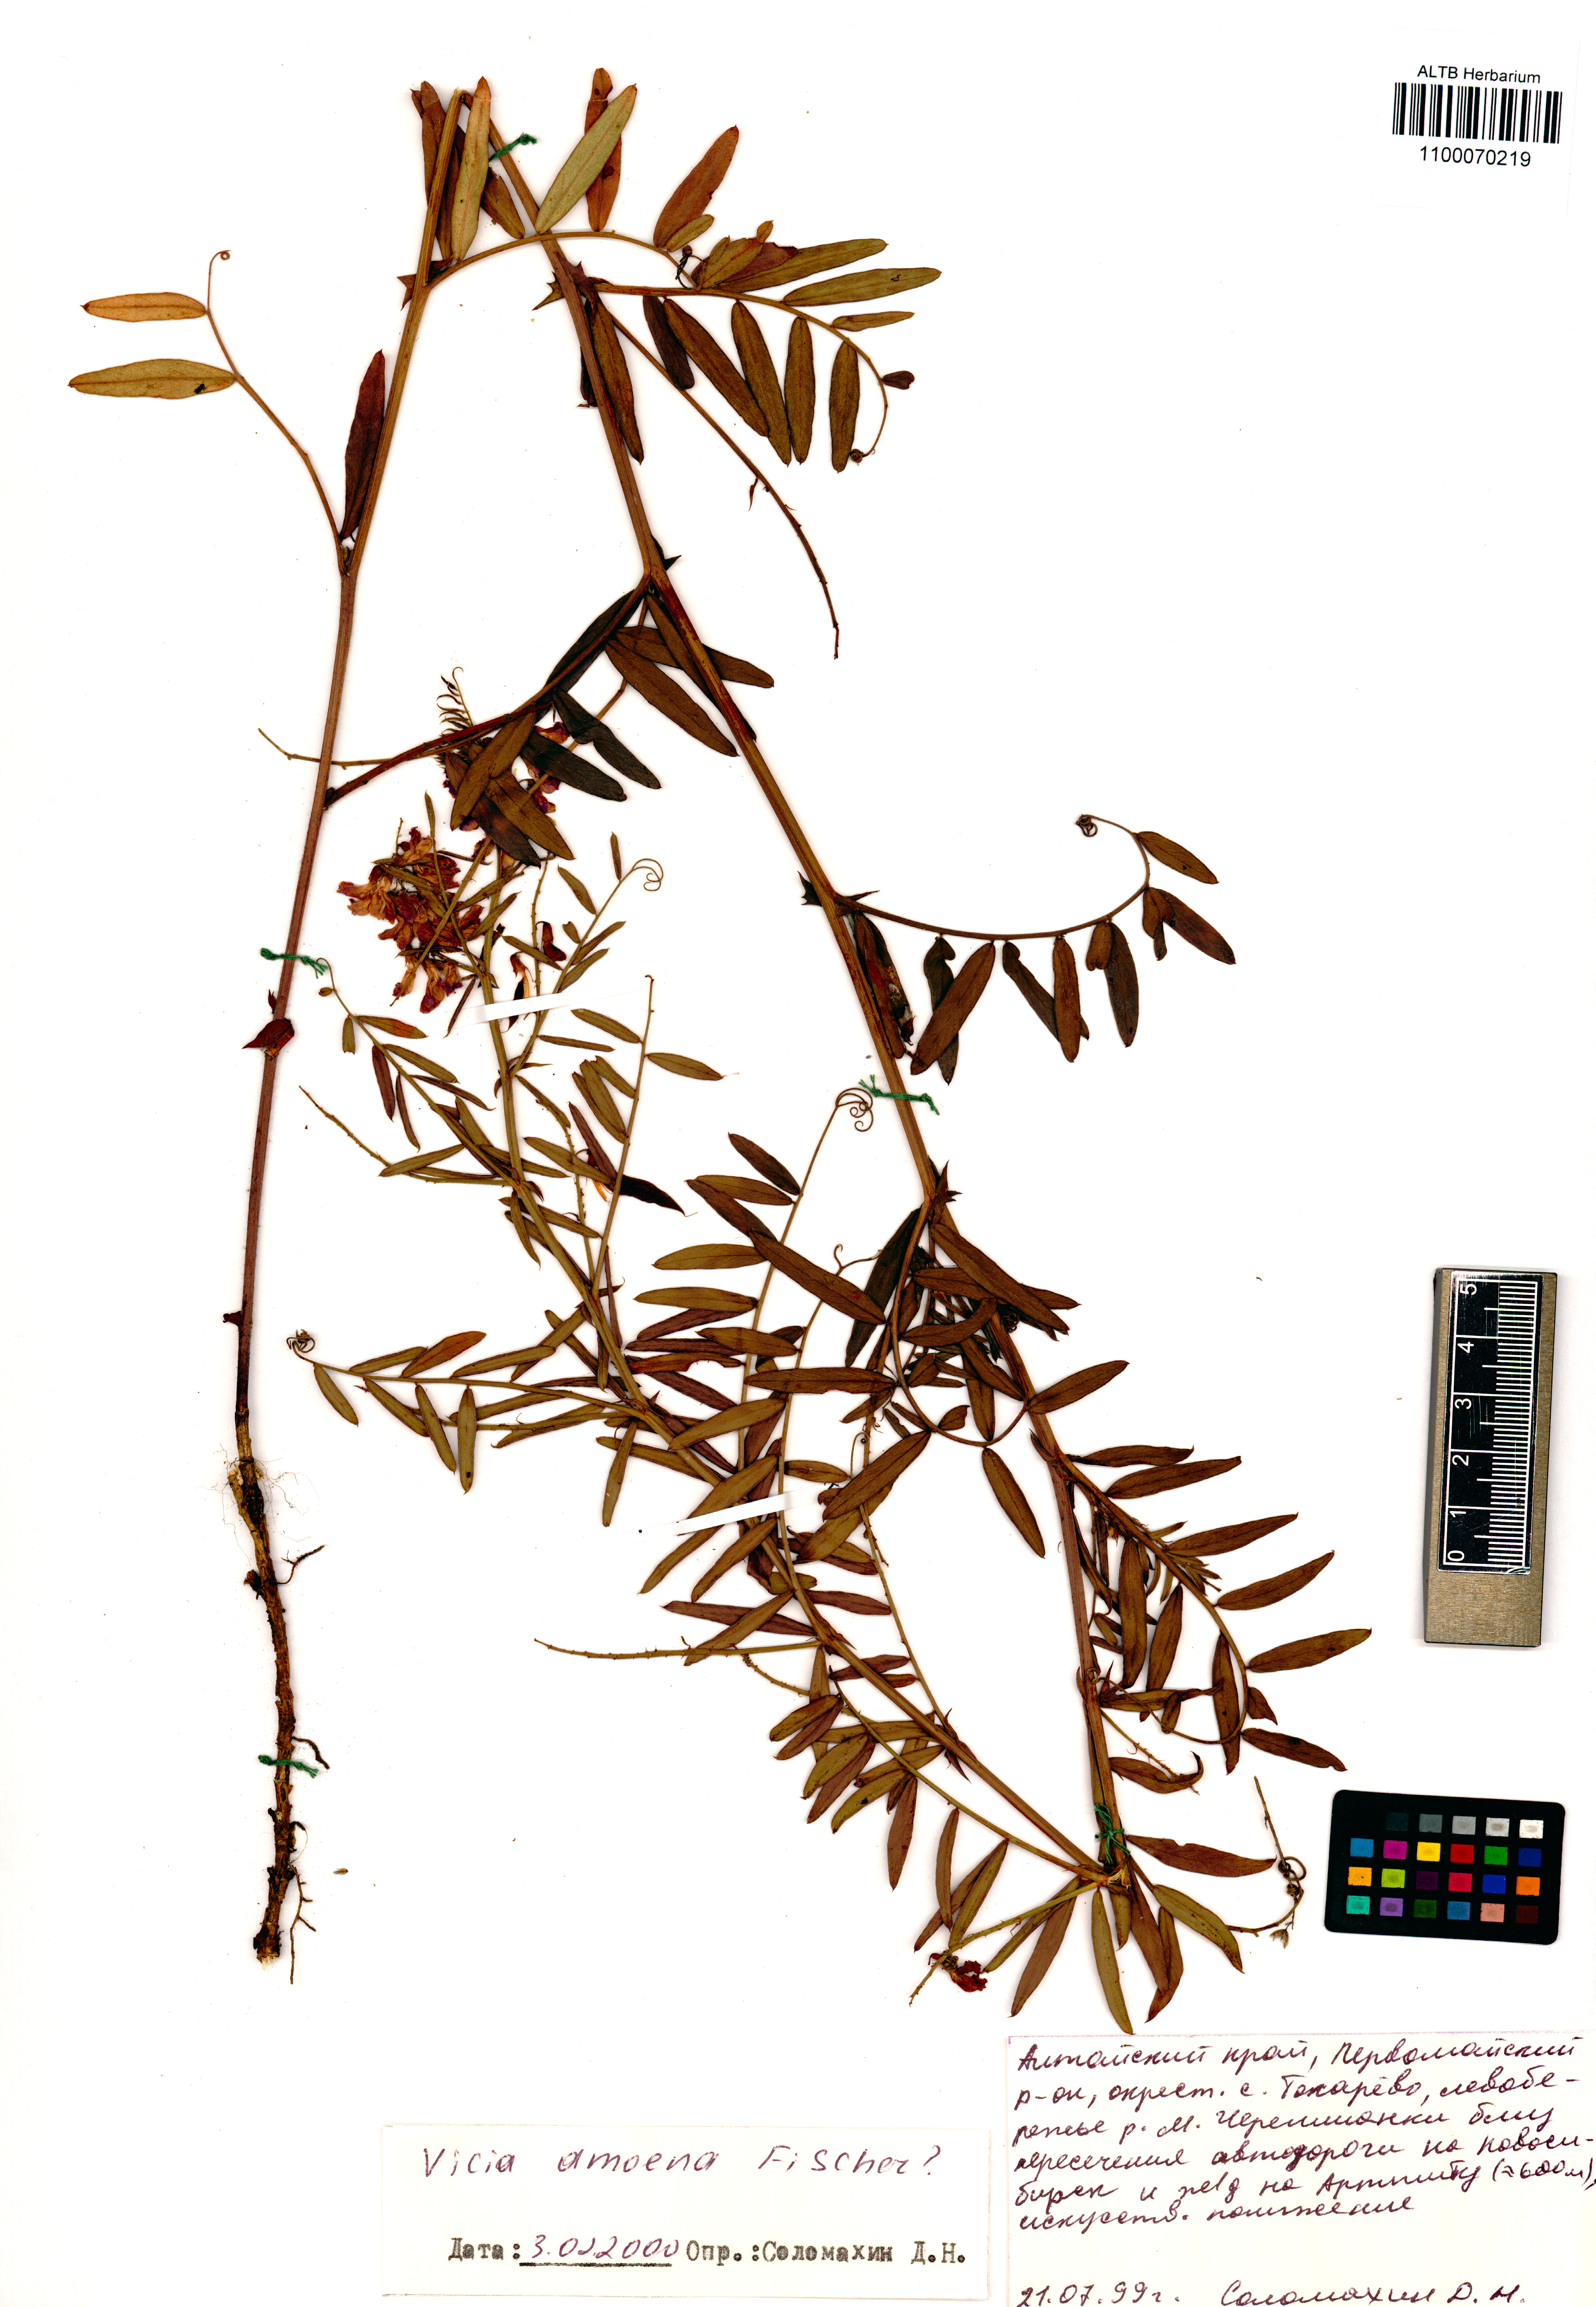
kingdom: Plantae
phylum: Tracheophyta
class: Magnoliopsida
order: Fabales
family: Fabaceae
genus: Vicia
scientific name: Vicia amoena
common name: Cheder ebs
